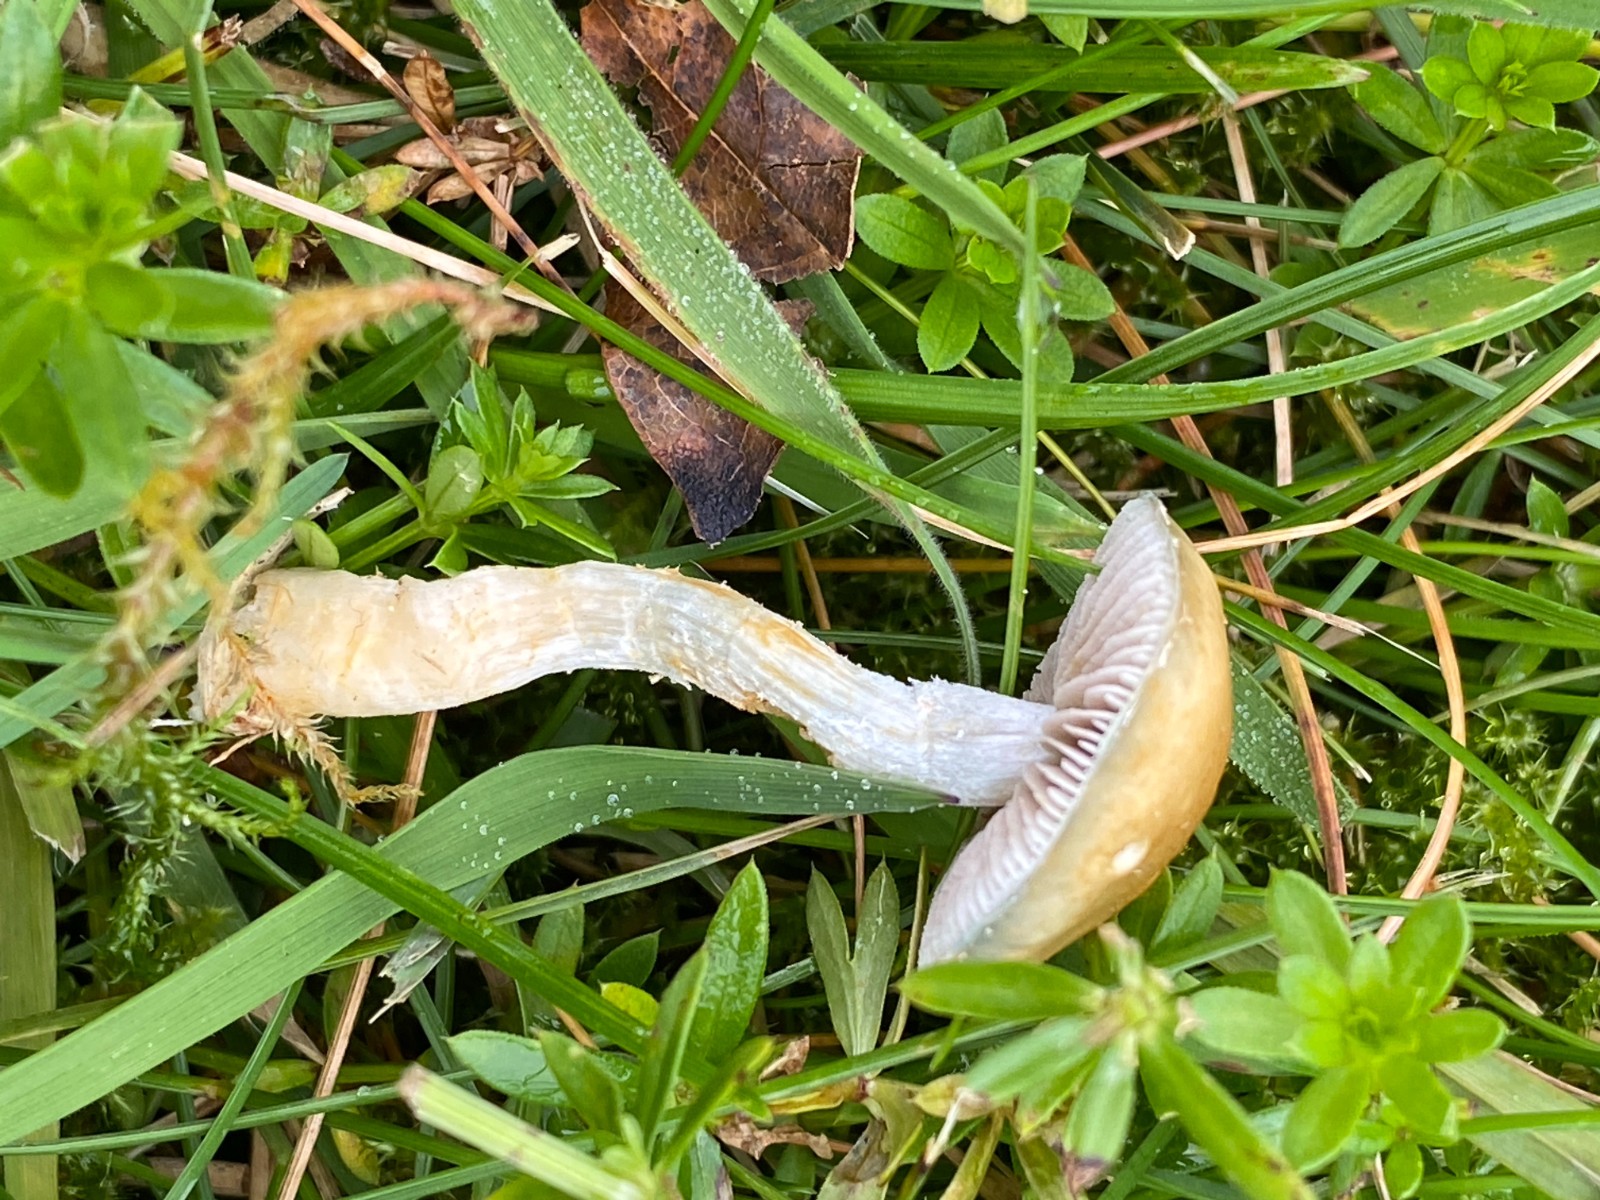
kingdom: Fungi
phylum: Basidiomycota
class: Agaricomycetes
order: Agaricales
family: Strophariaceae
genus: Stropharia
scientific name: Stropharia cyanea
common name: blågrøn bredblad
